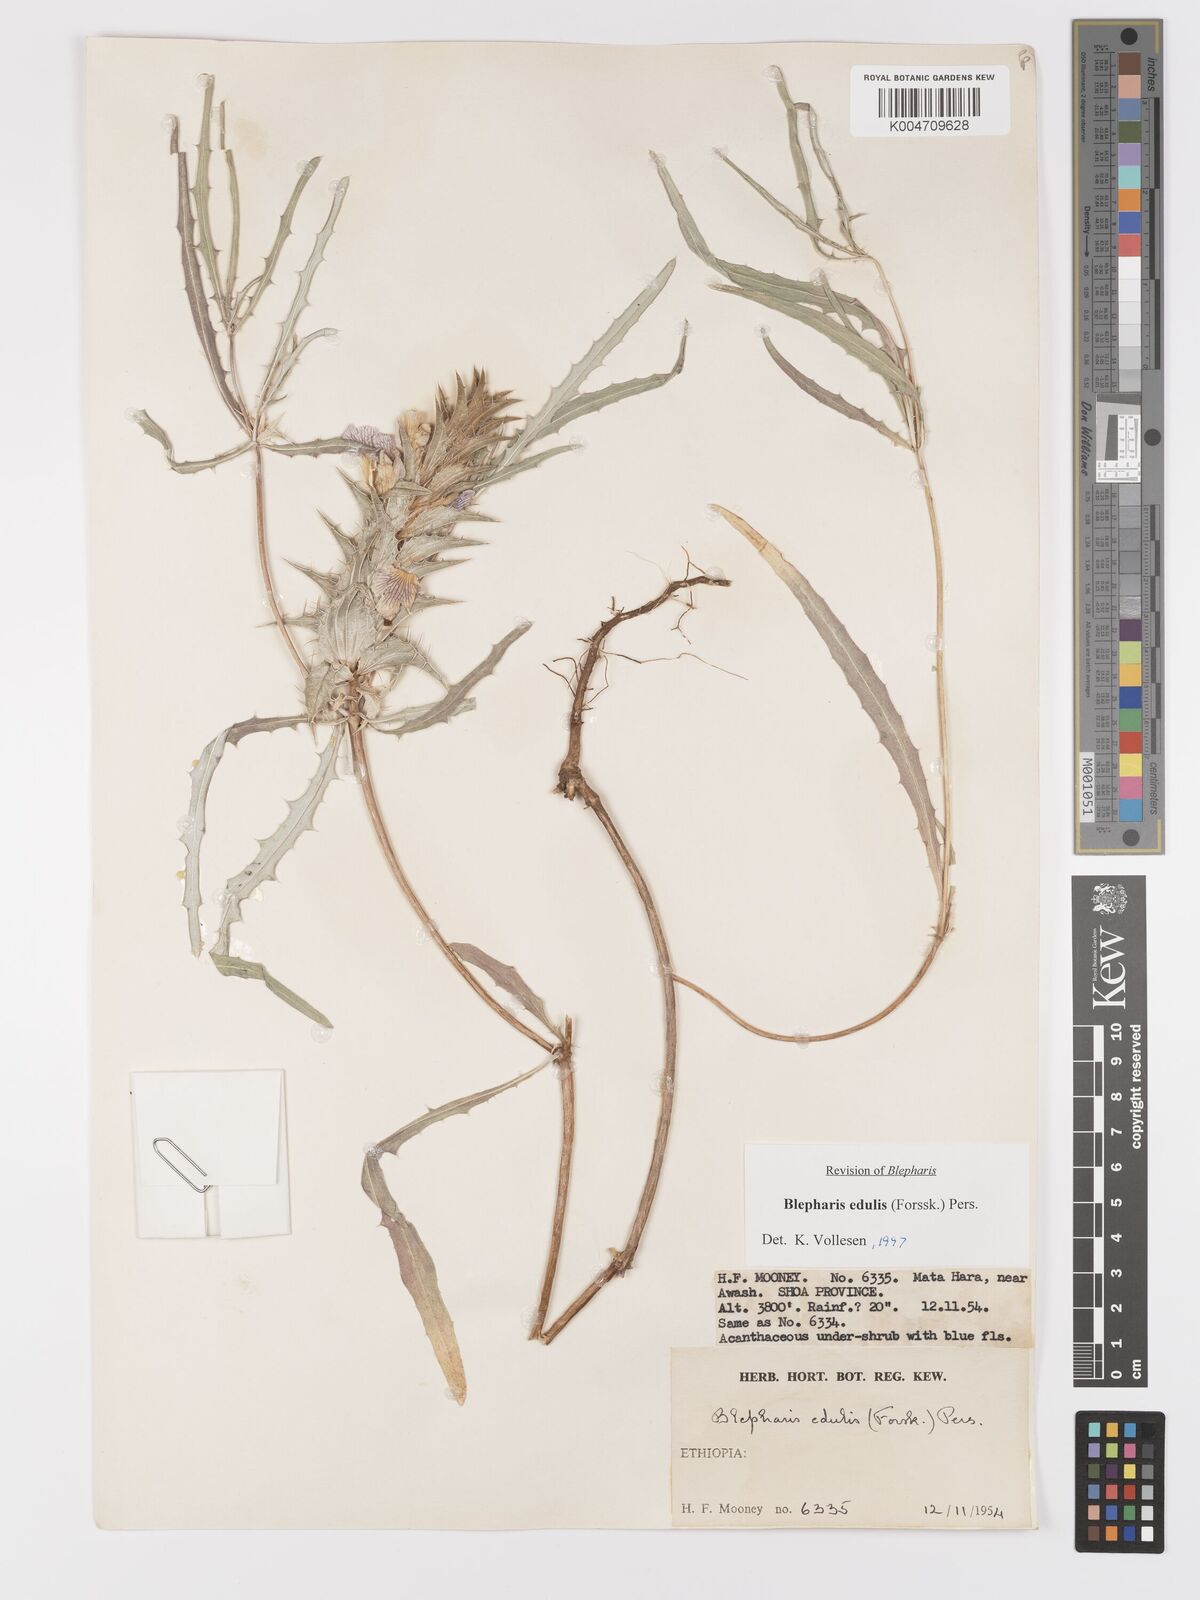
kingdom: Plantae
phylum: Tracheophyta
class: Magnoliopsida
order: Lamiales
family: Acanthaceae
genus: Blepharis
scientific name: Blepharis edulis
